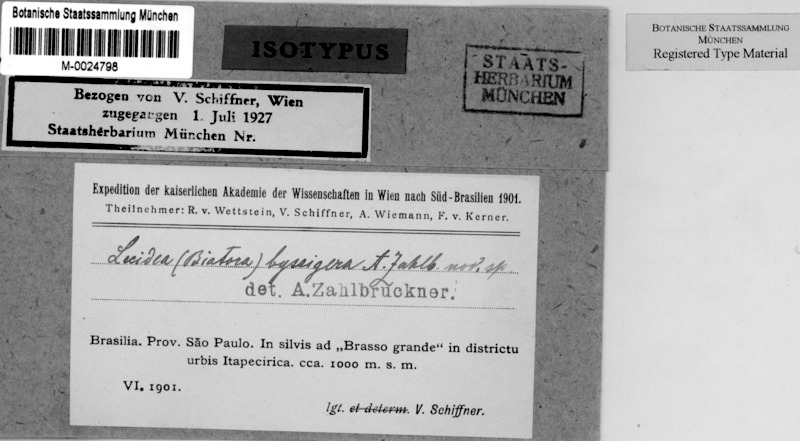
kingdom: Fungi
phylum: Ascomycota
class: Lecanoromycetes
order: Lecideales
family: Lecideaceae
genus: Lecidea
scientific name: Lecidea
